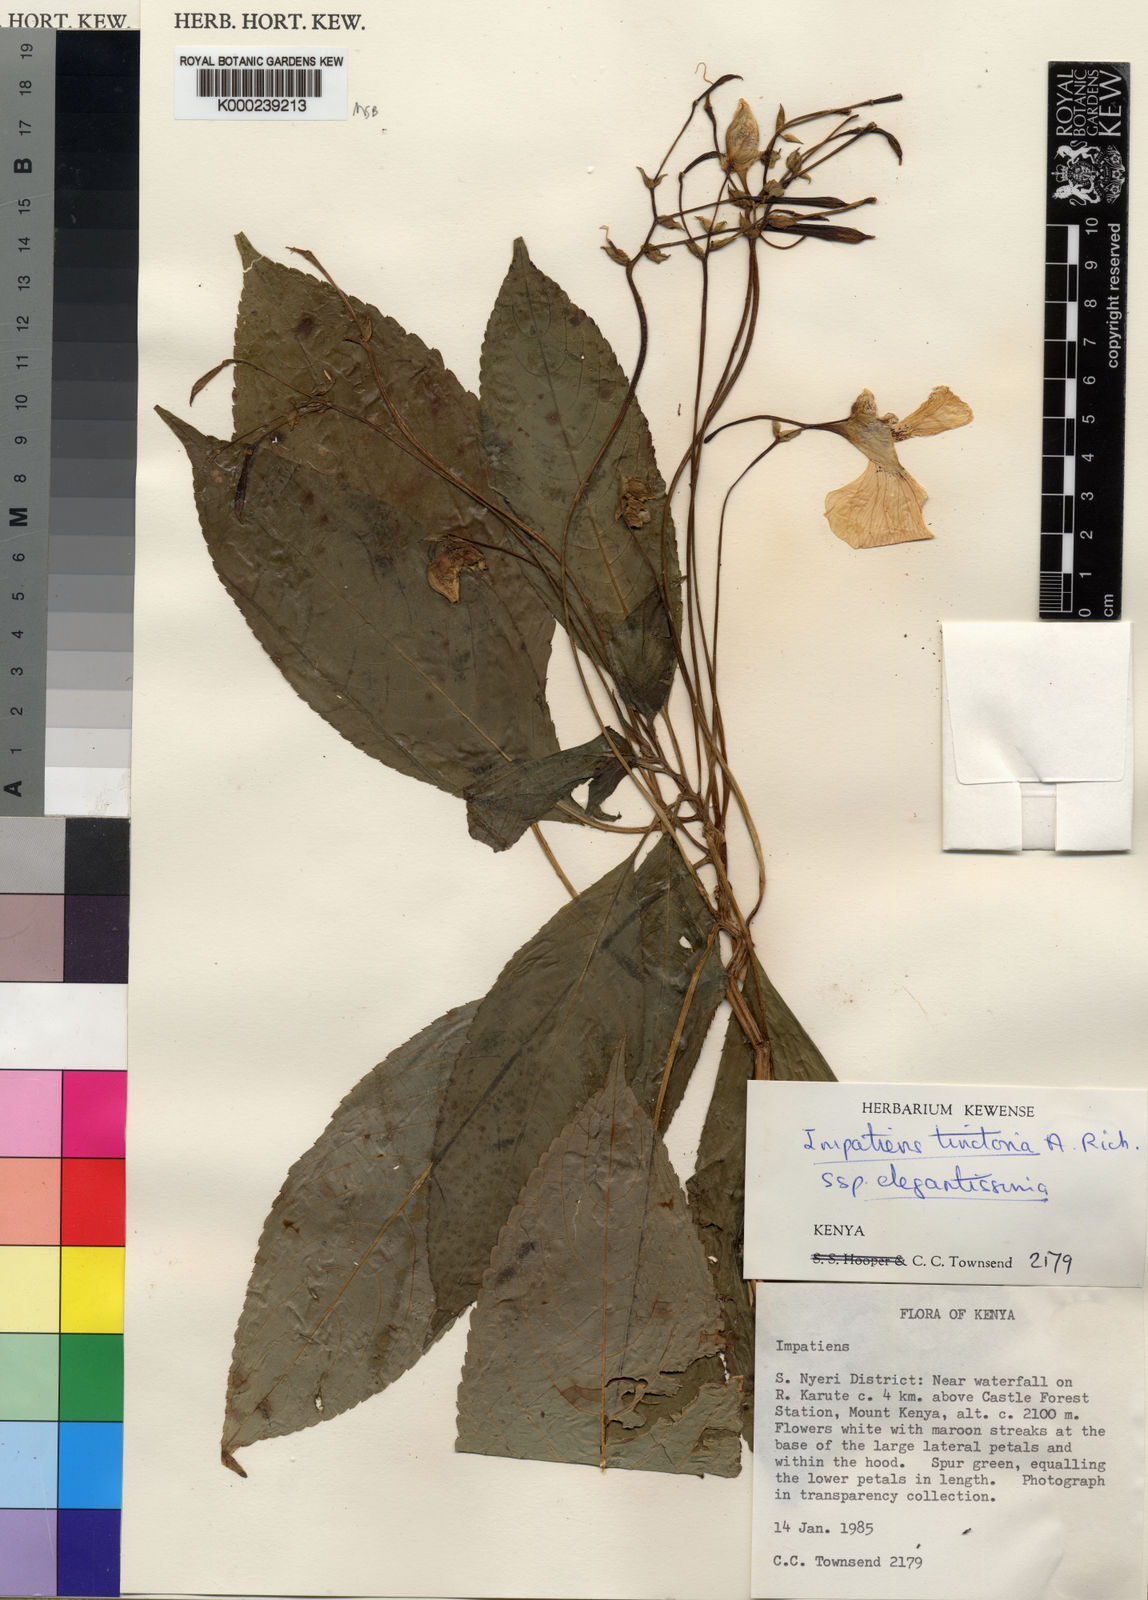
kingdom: Plantae
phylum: Tracheophyta
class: Magnoliopsida
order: Ericales
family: Balsaminaceae
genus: Impatiens
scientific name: Impatiens tinctoria
